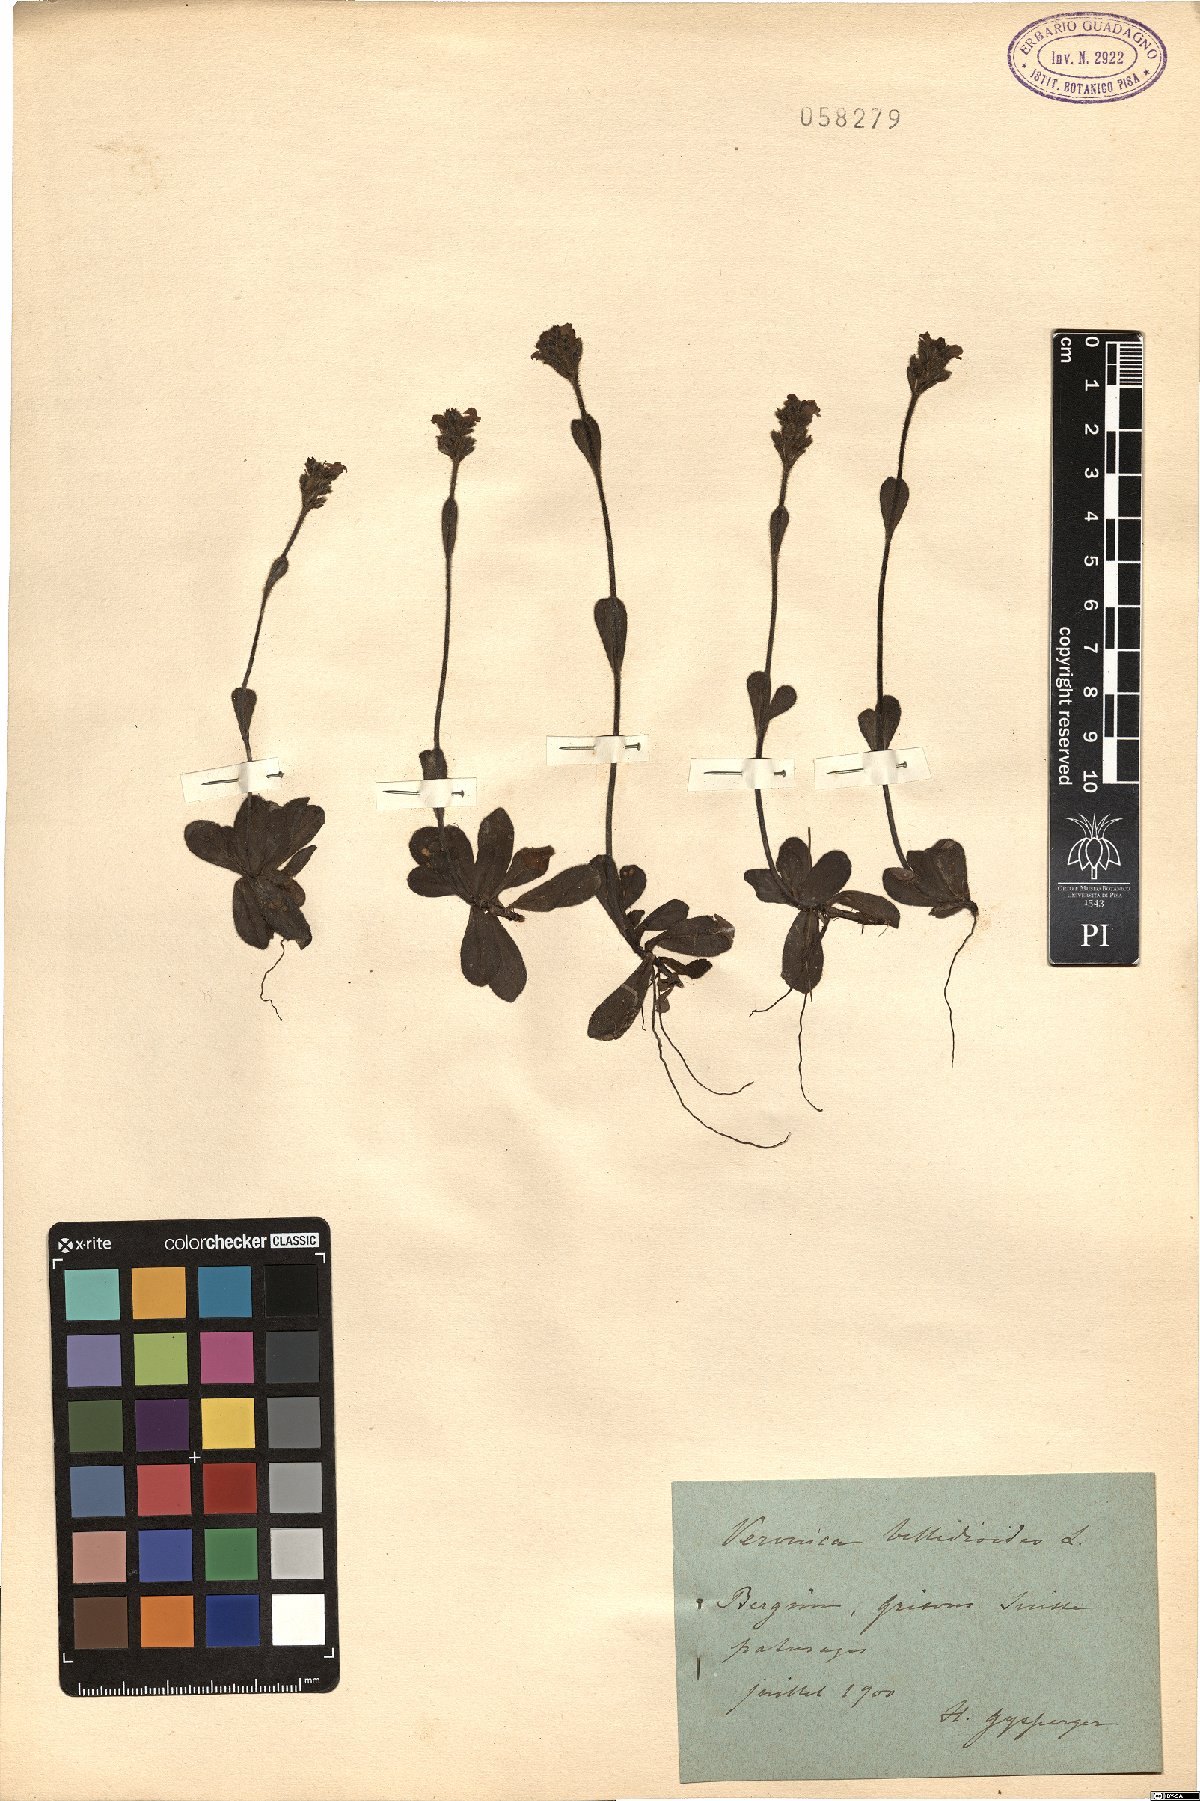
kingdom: Plantae
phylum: Tracheophyta
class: Magnoliopsida
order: Lamiales
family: Plantaginaceae
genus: Veronica
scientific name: Veronica bellidioides
